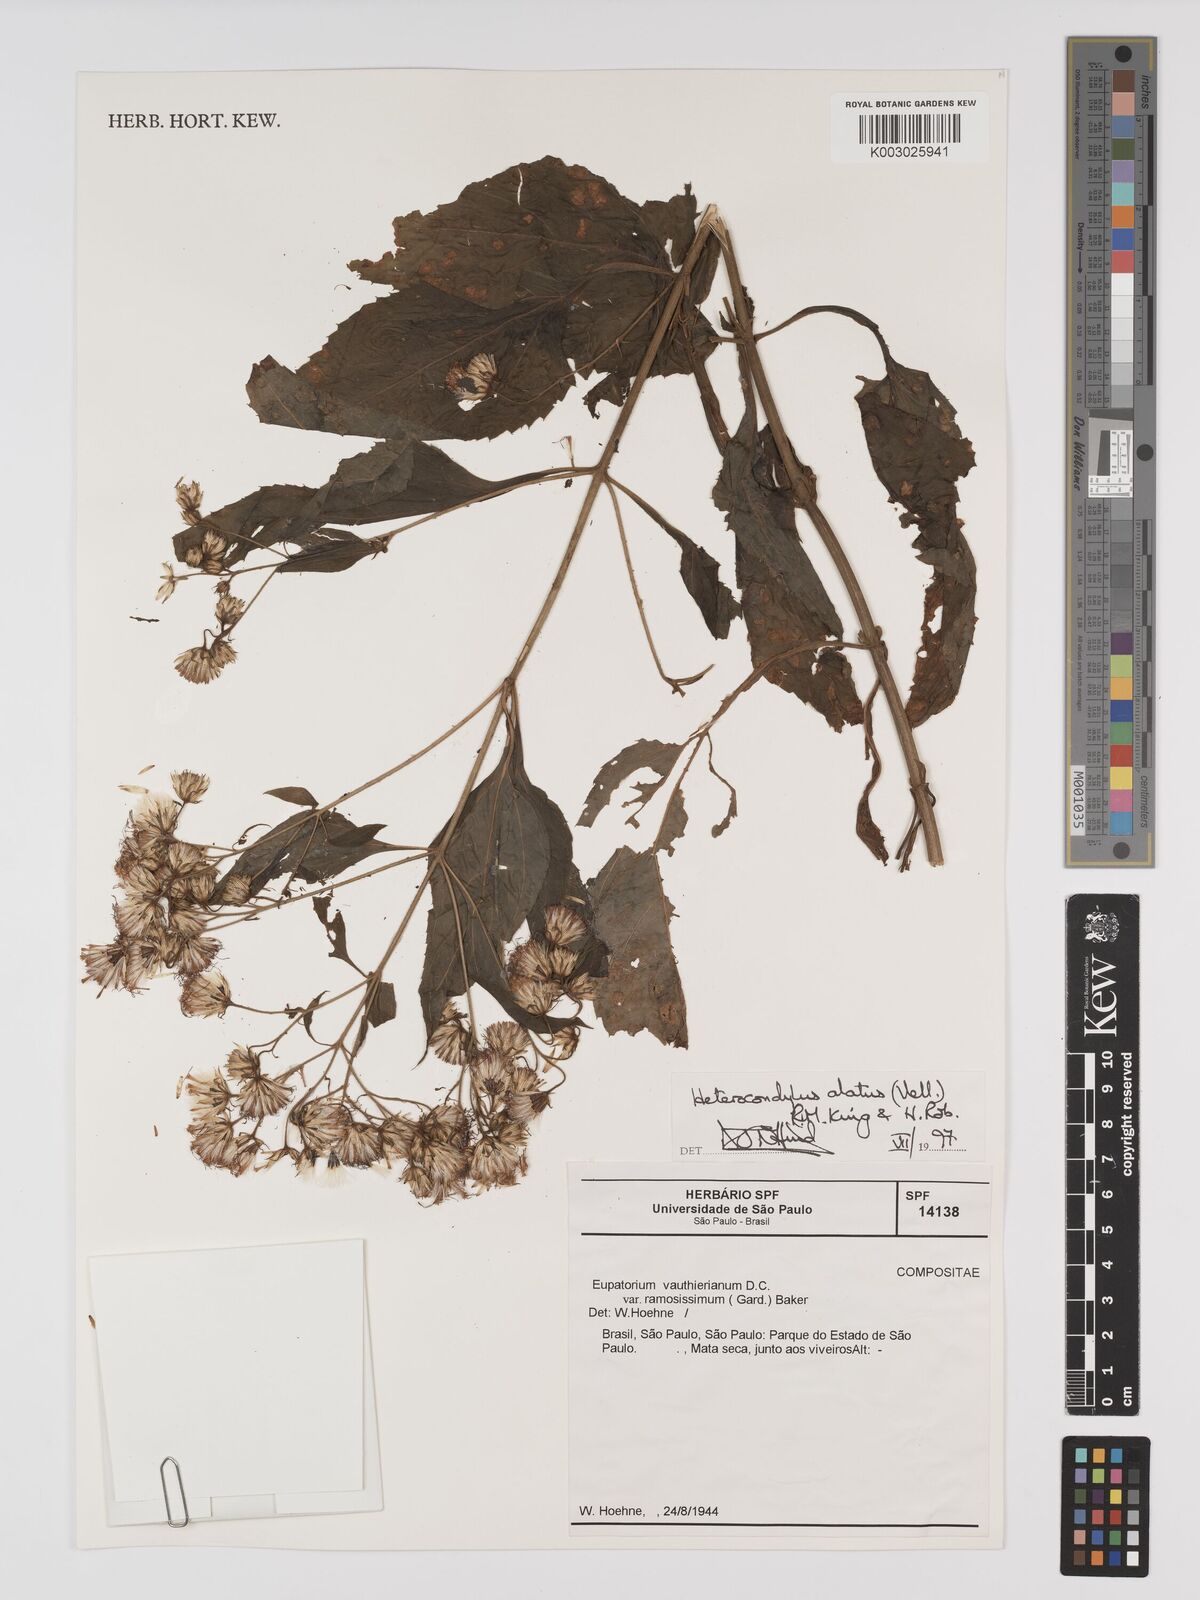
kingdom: Plantae
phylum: Tracheophyta
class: Magnoliopsida
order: Asterales
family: Asteraceae
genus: Heterocondylus
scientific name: Heterocondylus alatus
